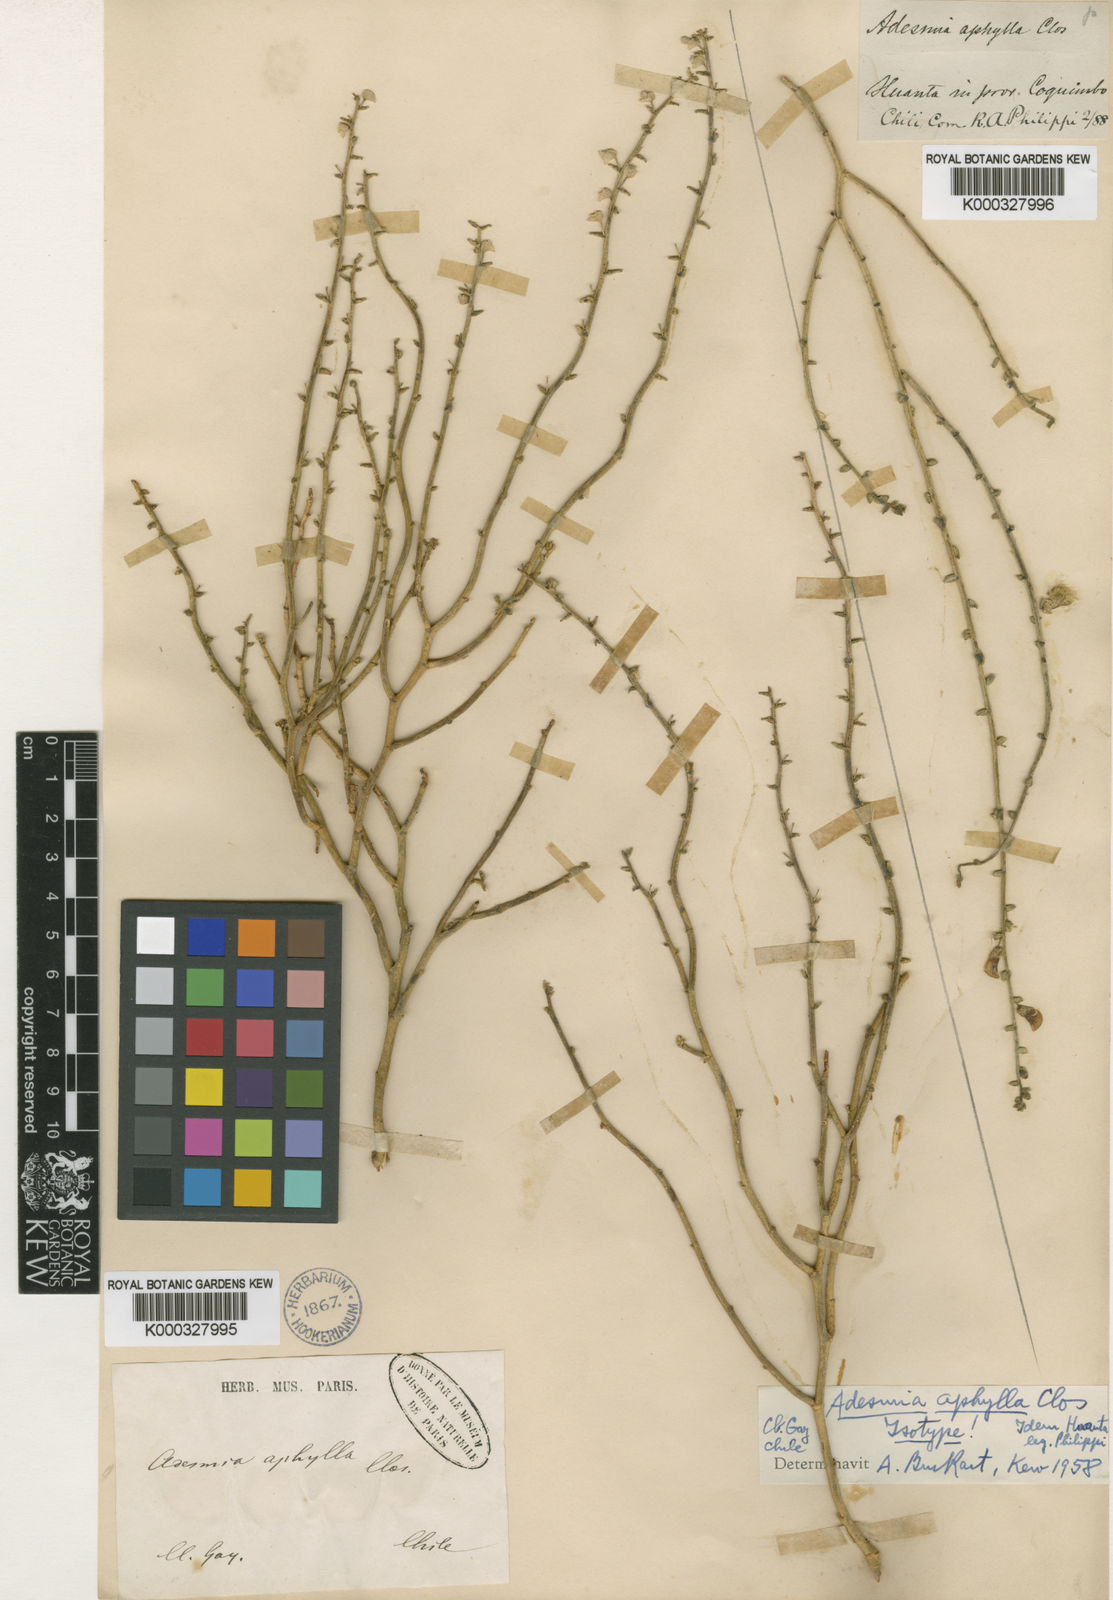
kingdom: Plantae
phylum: Tracheophyta
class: Magnoliopsida
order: Fabales
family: Fabaceae
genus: Adesmia
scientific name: Adesmia aphylla
